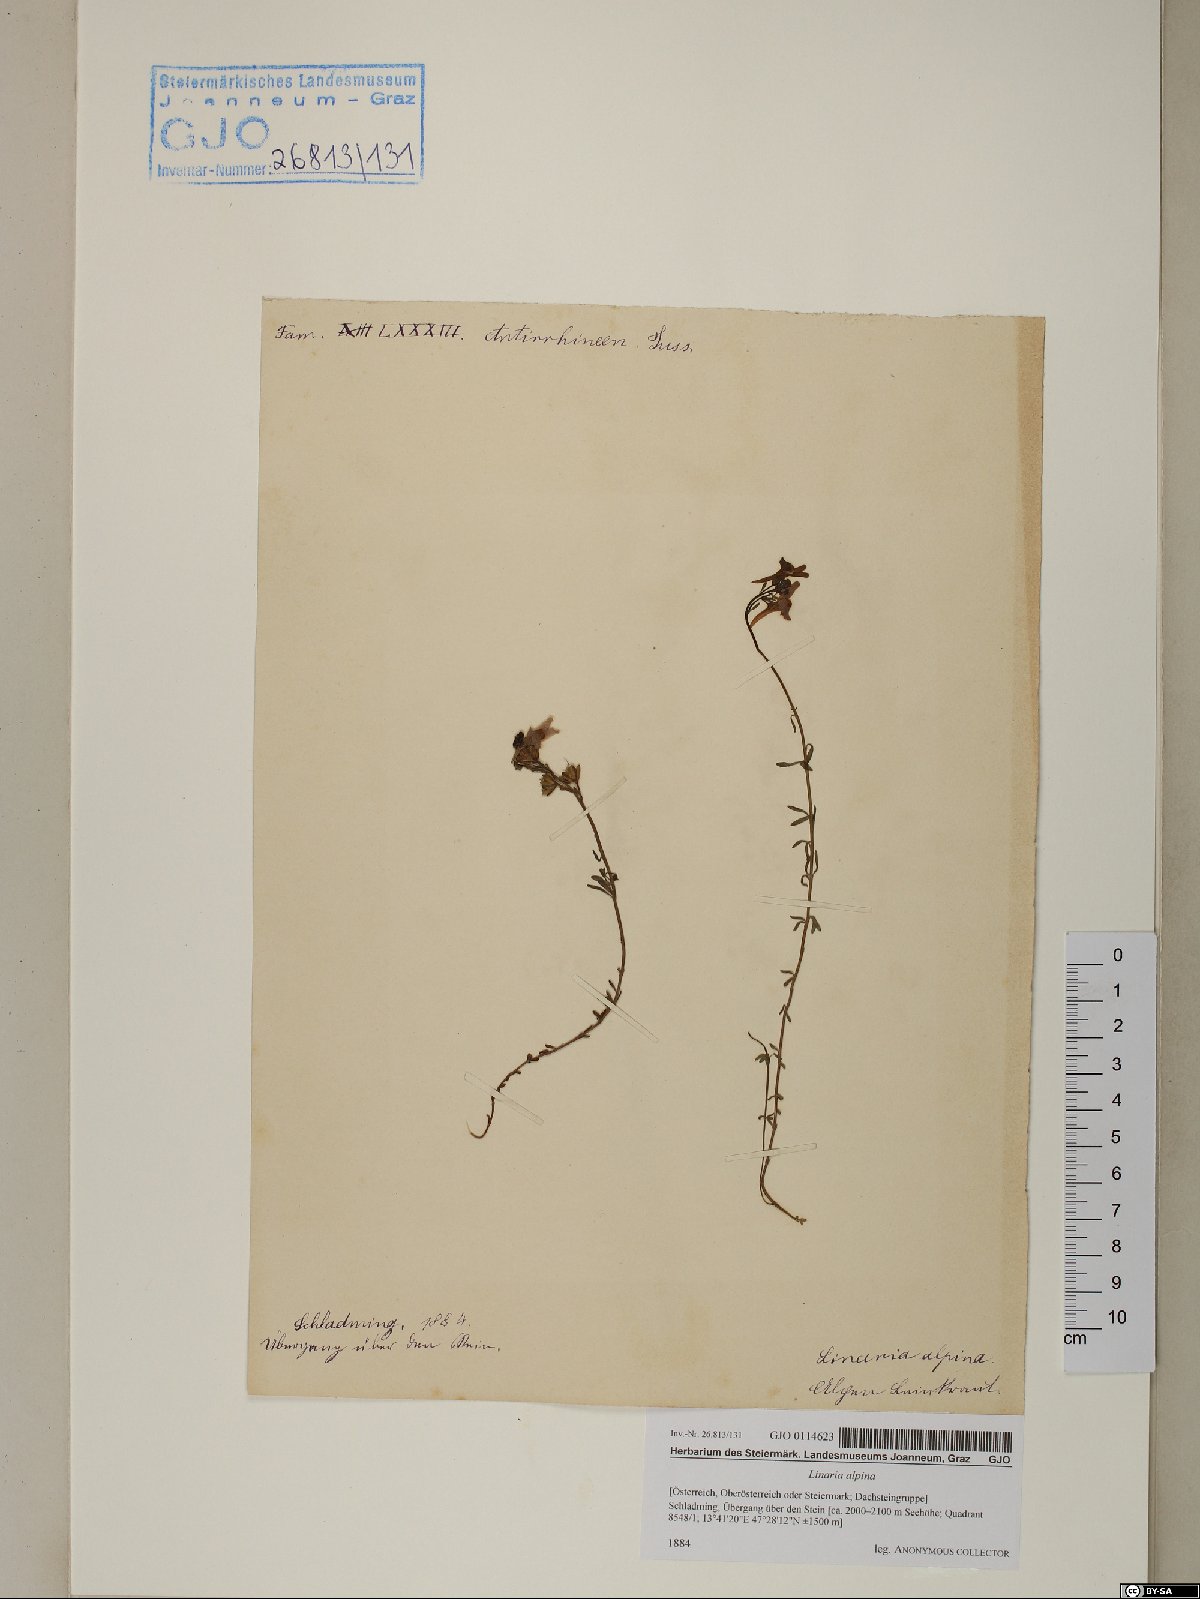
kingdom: Plantae
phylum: Tracheophyta
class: Magnoliopsida
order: Lamiales
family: Plantaginaceae
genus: Linaria
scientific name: Linaria alpina
